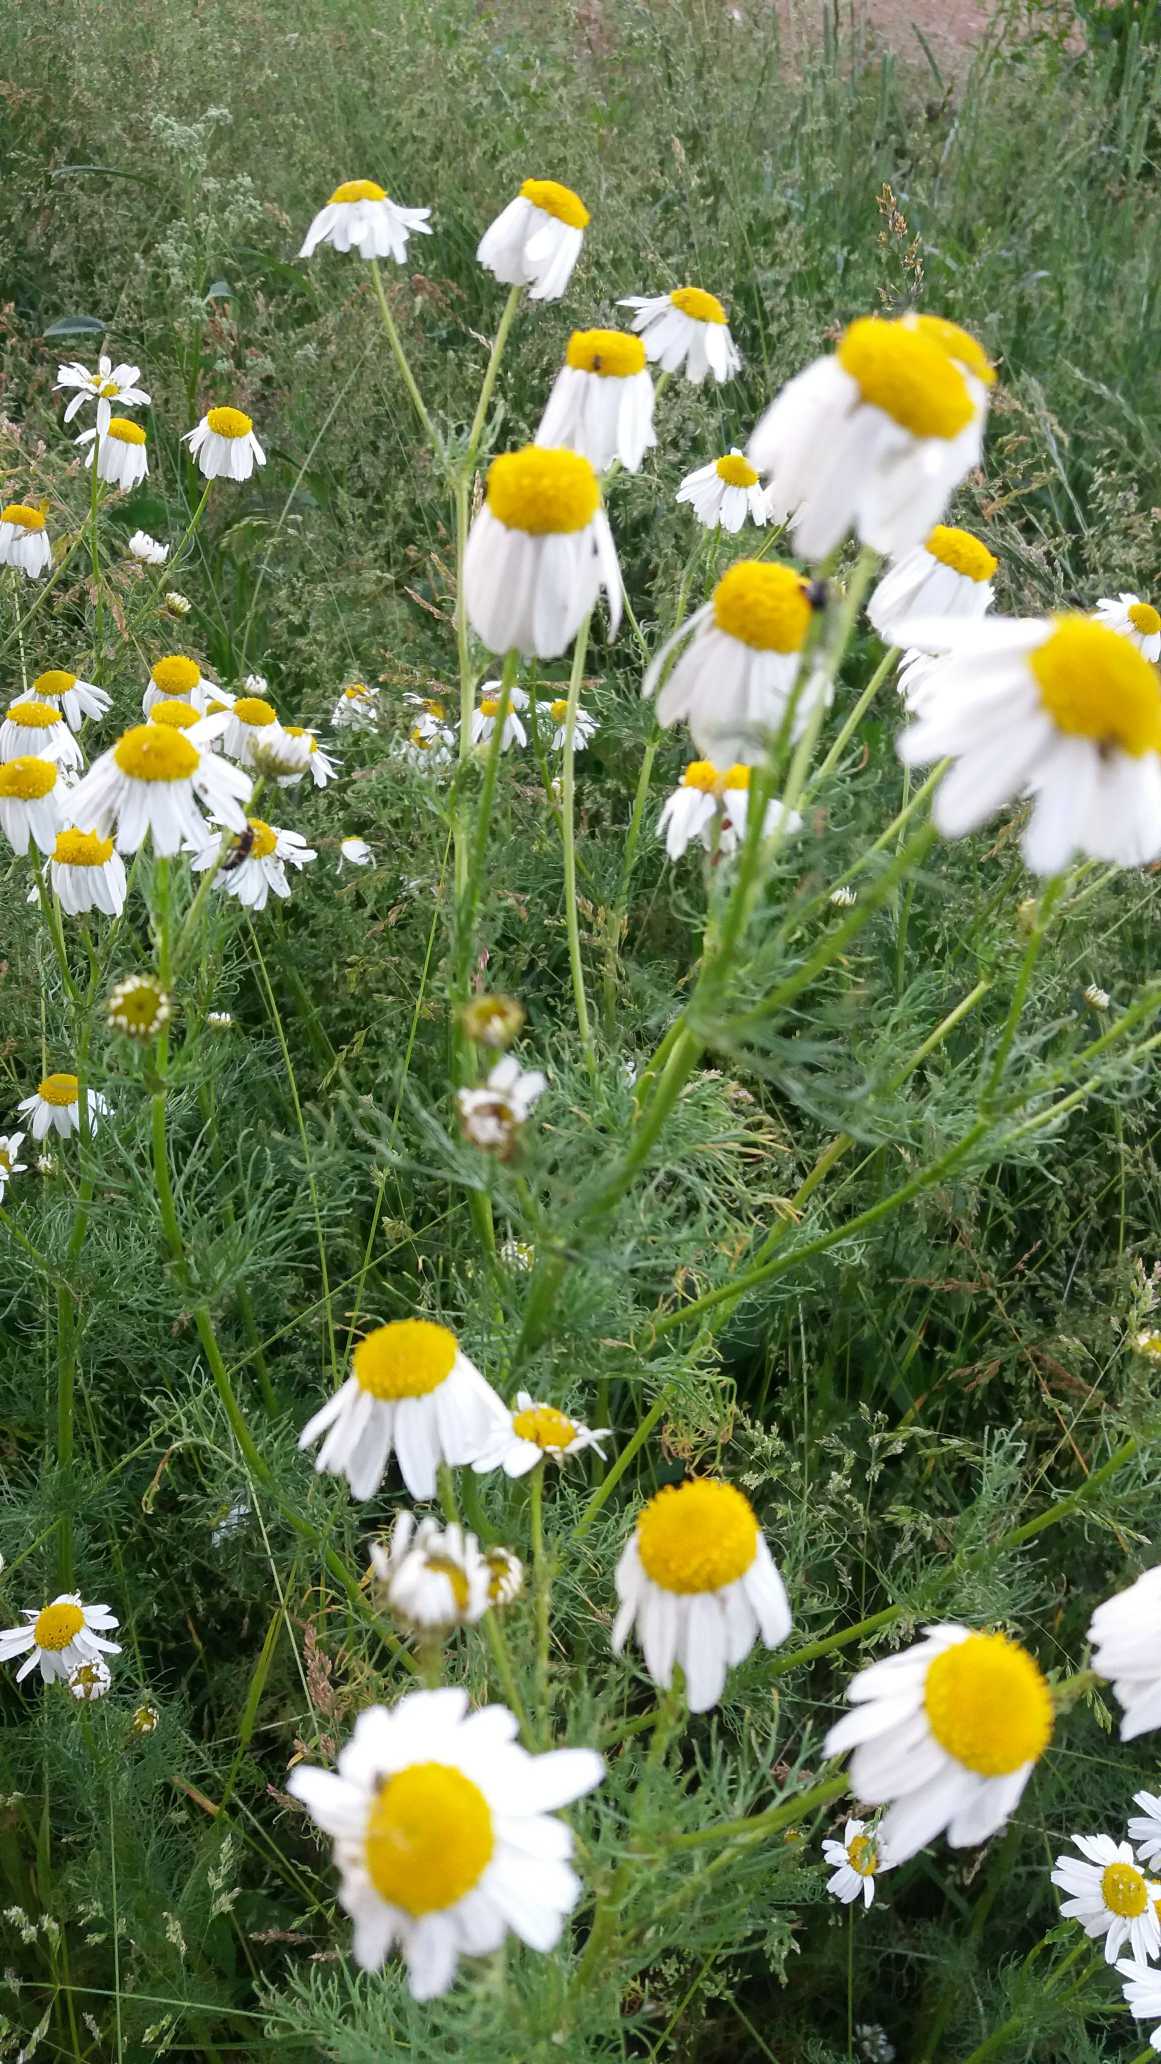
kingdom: Plantae
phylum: Tracheophyta
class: Magnoliopsida
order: Asterales
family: Asteraceae
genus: Tripleurospermum
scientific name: Tripleurospermum inodorum
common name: Lugtløs kamille
